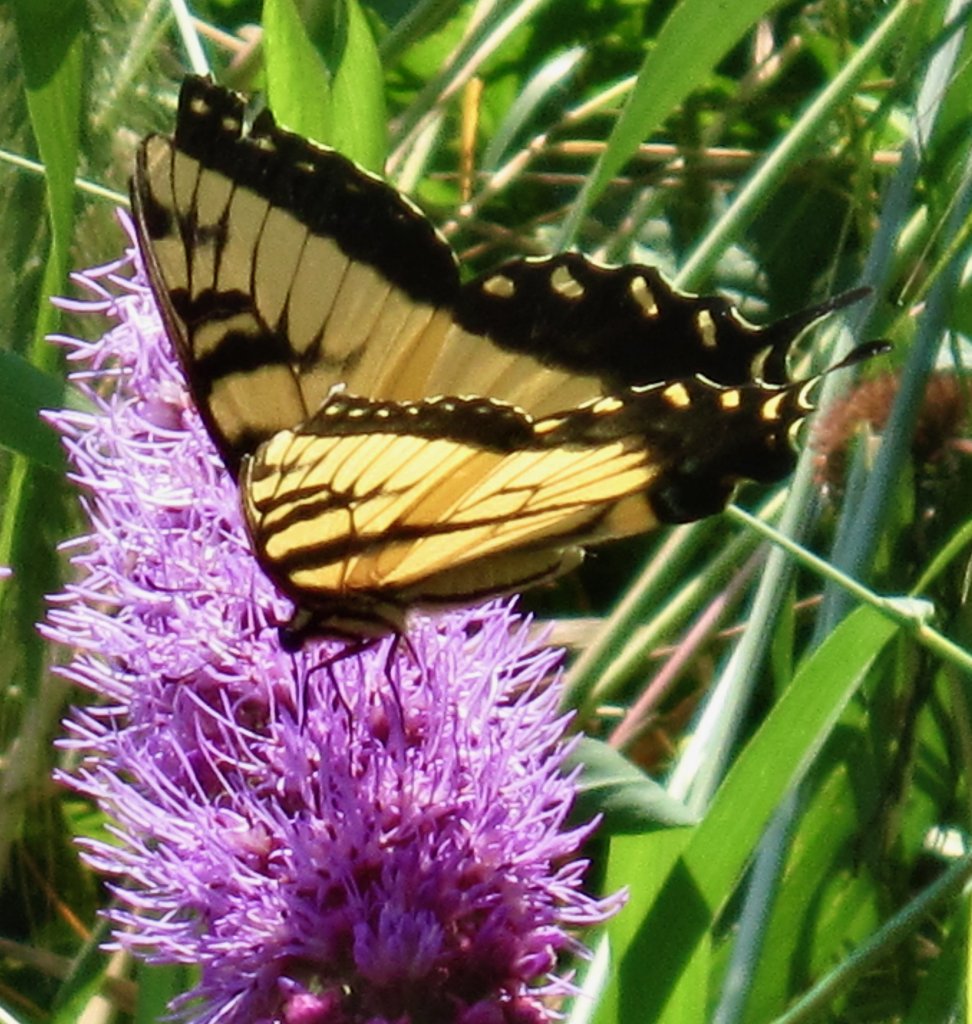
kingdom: Animalia
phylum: Arthropoda
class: Insecta
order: Lepidoptera
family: Papilionidae
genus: Pterourus
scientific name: Pterourus glaucus
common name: Eastern Tiger Swallowtail
